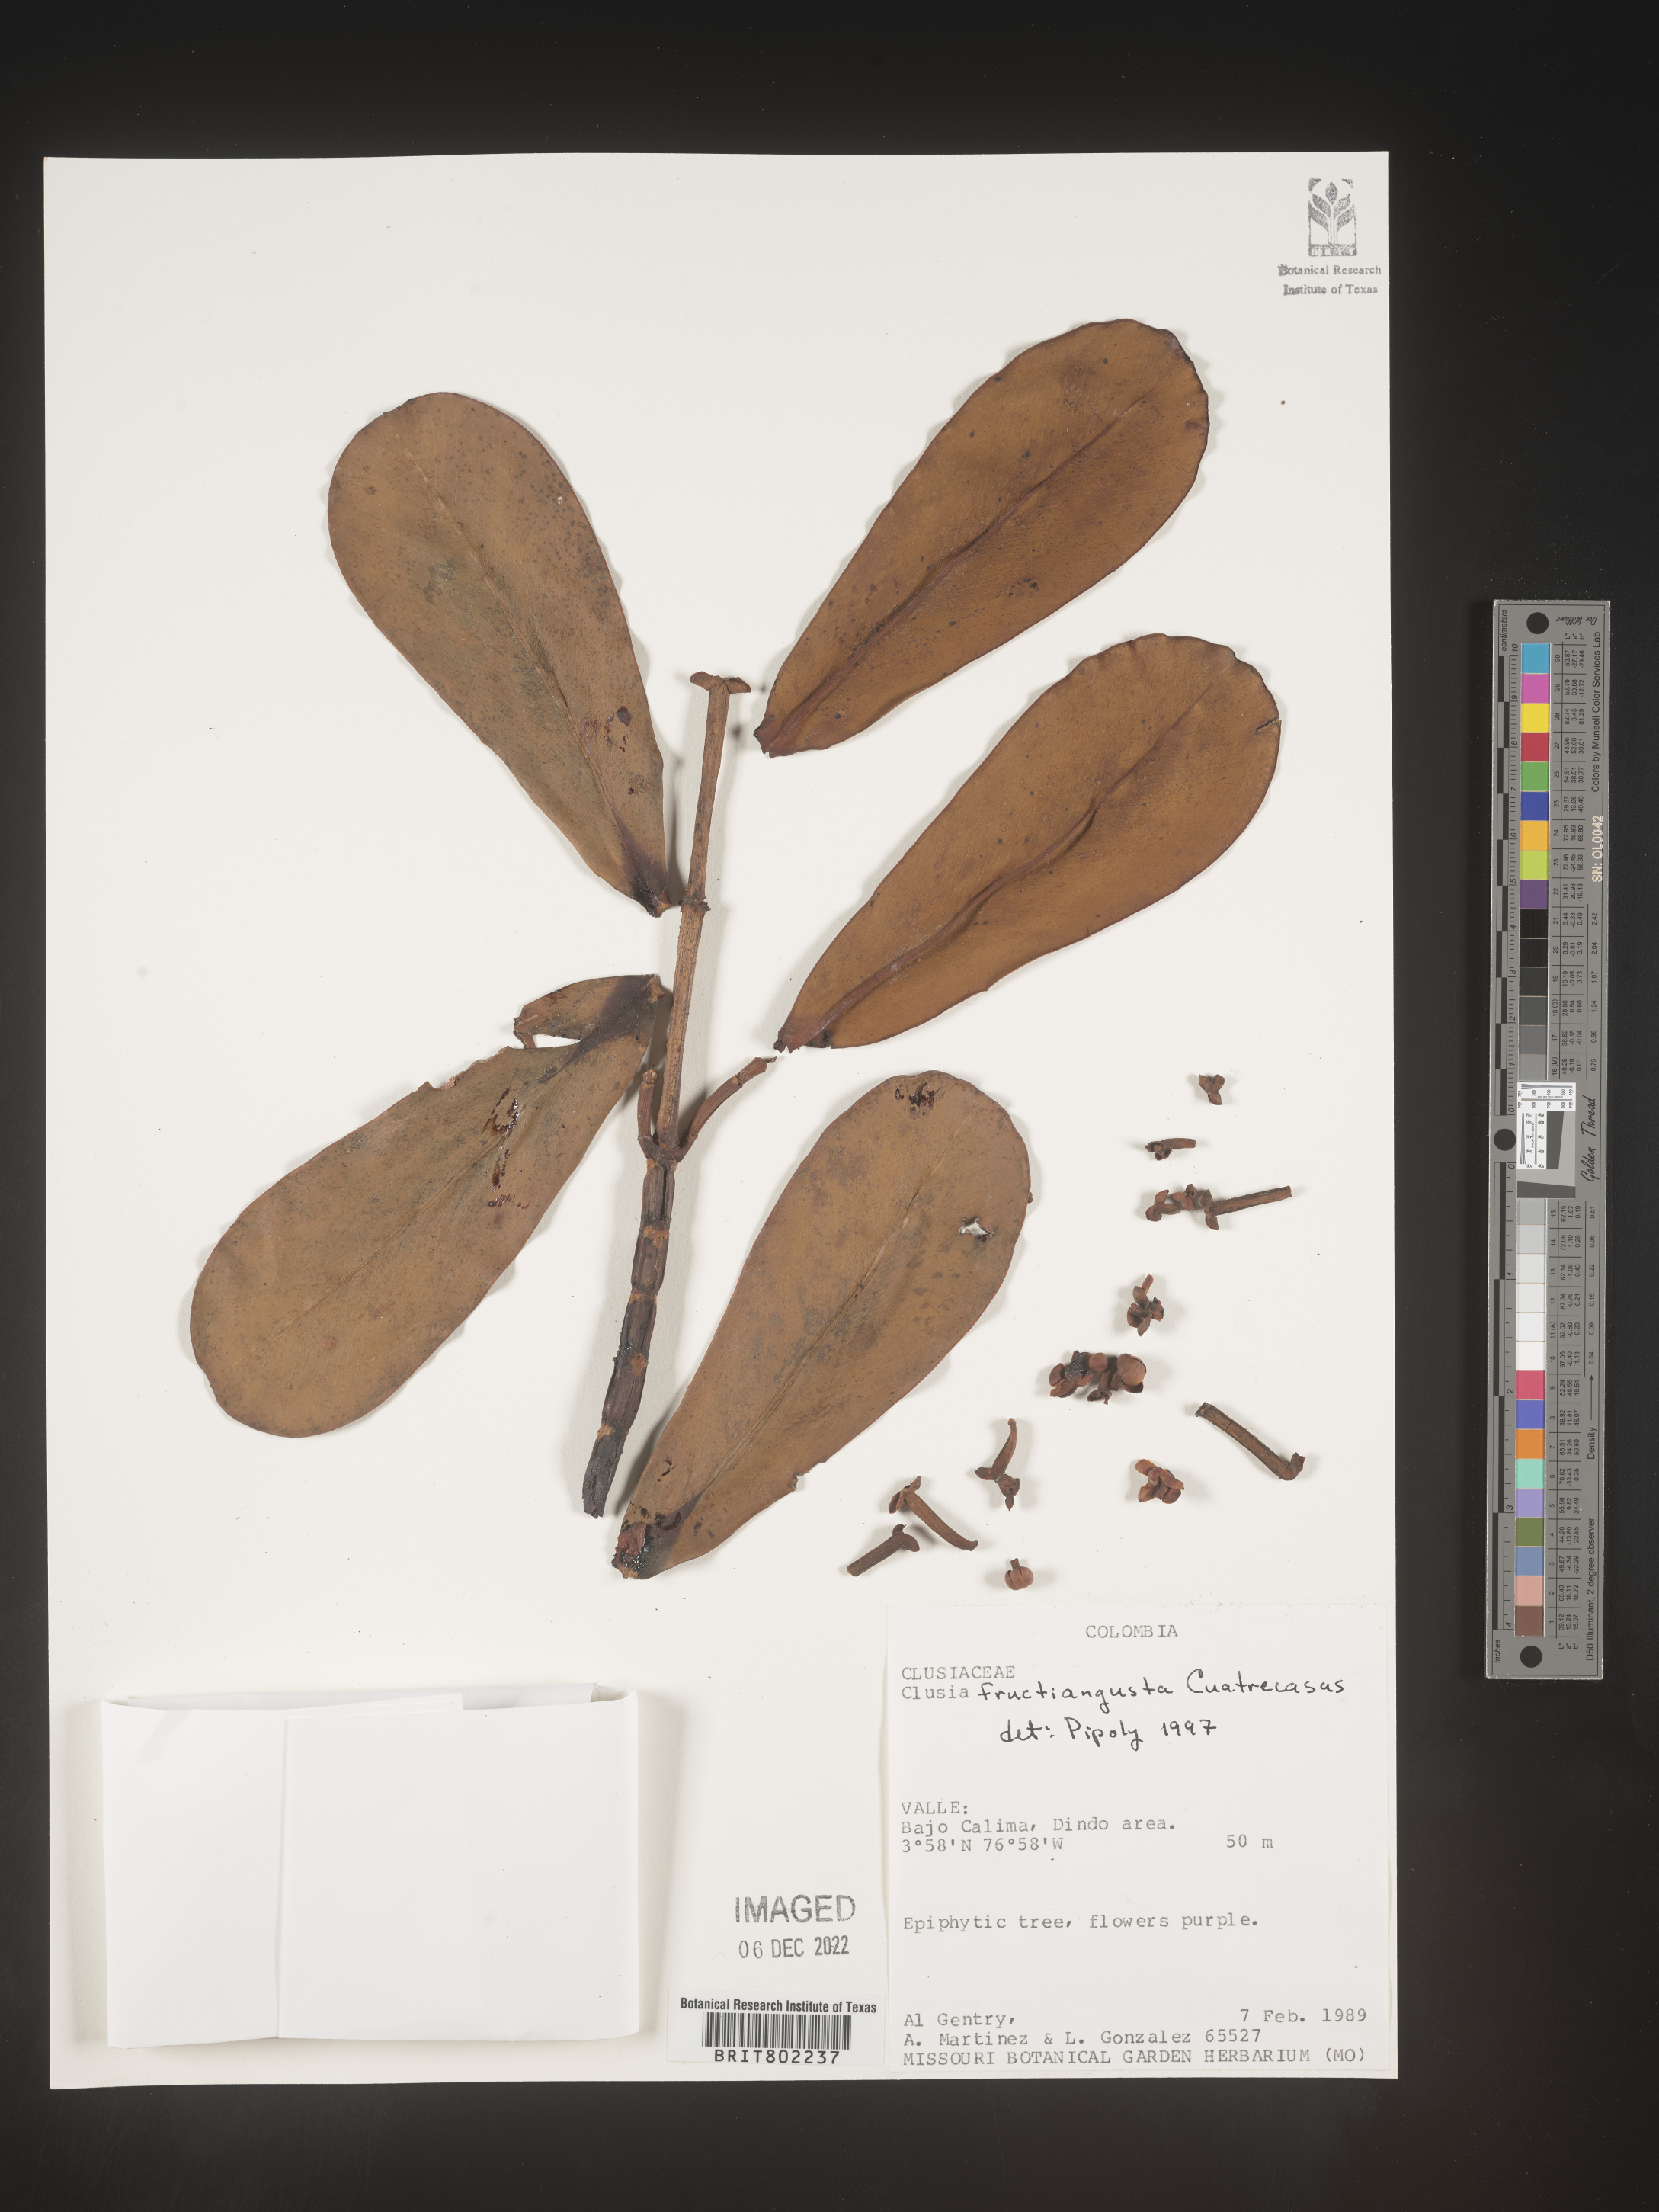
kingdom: Plantae
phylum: Tracheophyta
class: Magnoliopsida
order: Malpighiales
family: Clusiaceae
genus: Clusia
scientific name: Clusia fructiangusta
